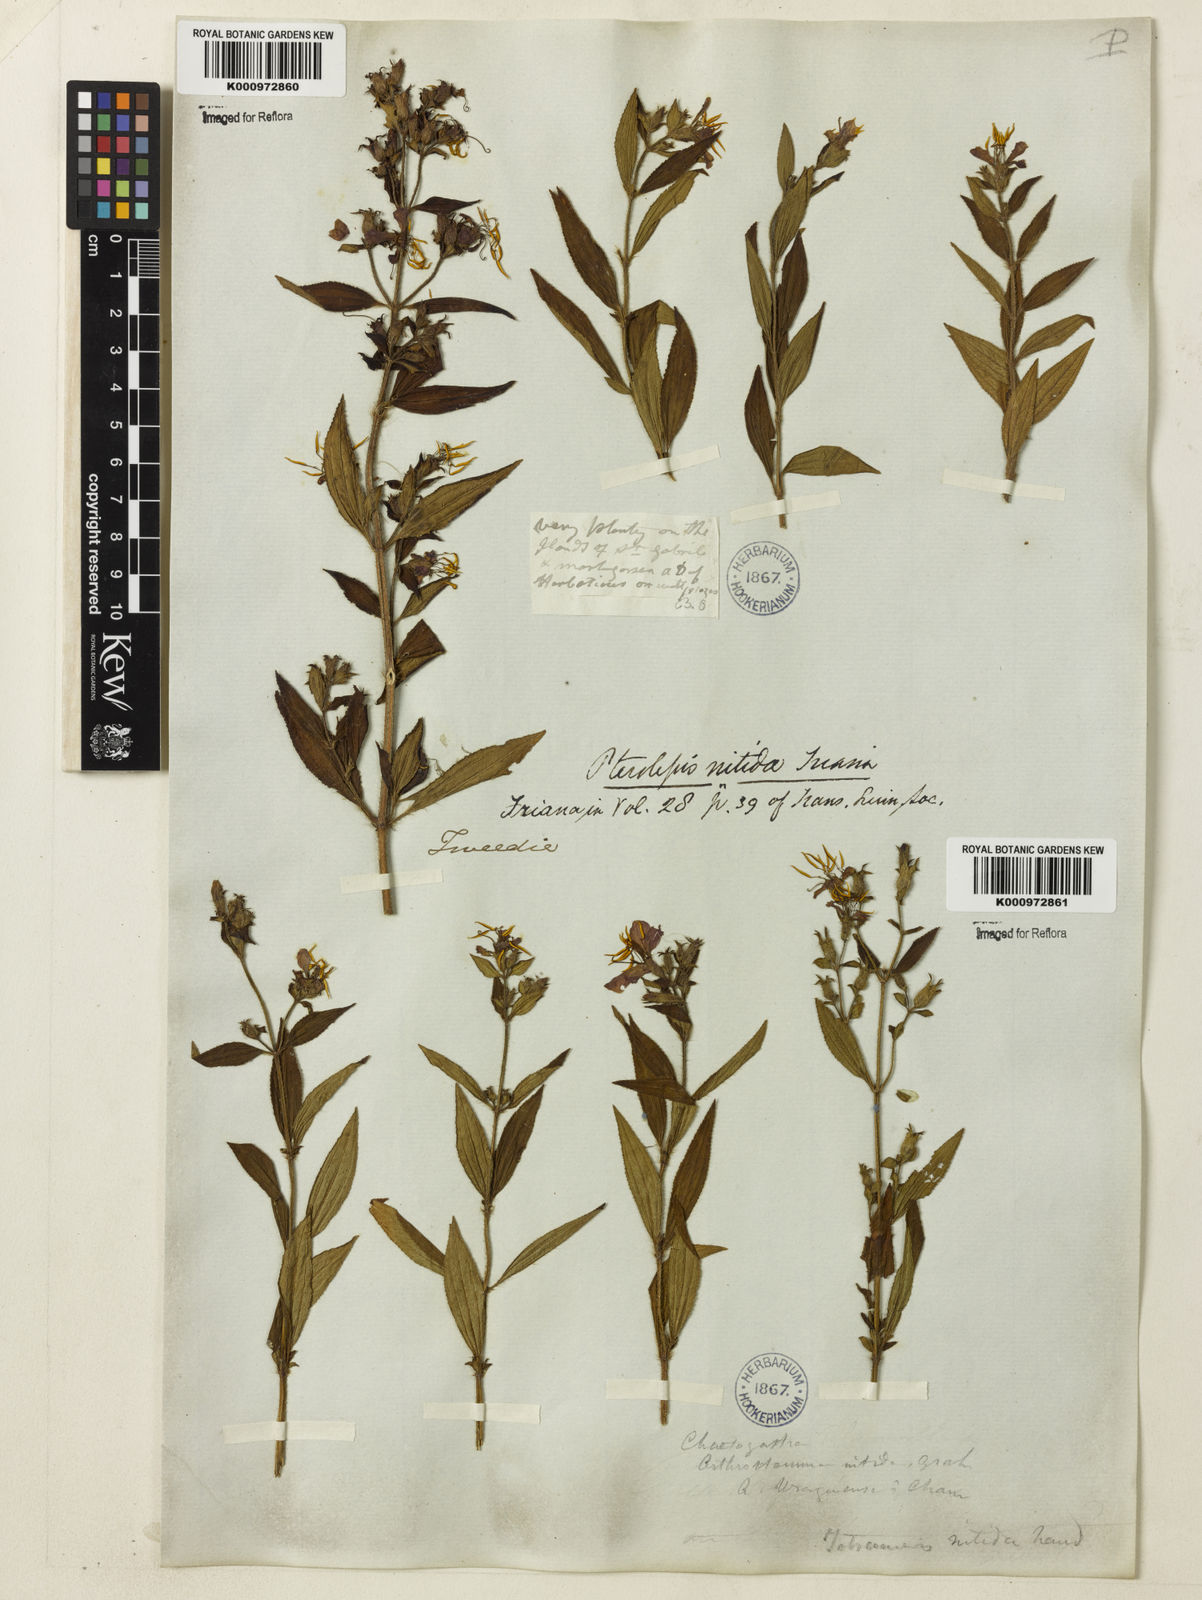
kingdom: Plantae
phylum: Tracheophyta
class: Magnoliopsida
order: Myrtales
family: Melastomataceae
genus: Chaetogastra
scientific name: Chaetogastra nitida
